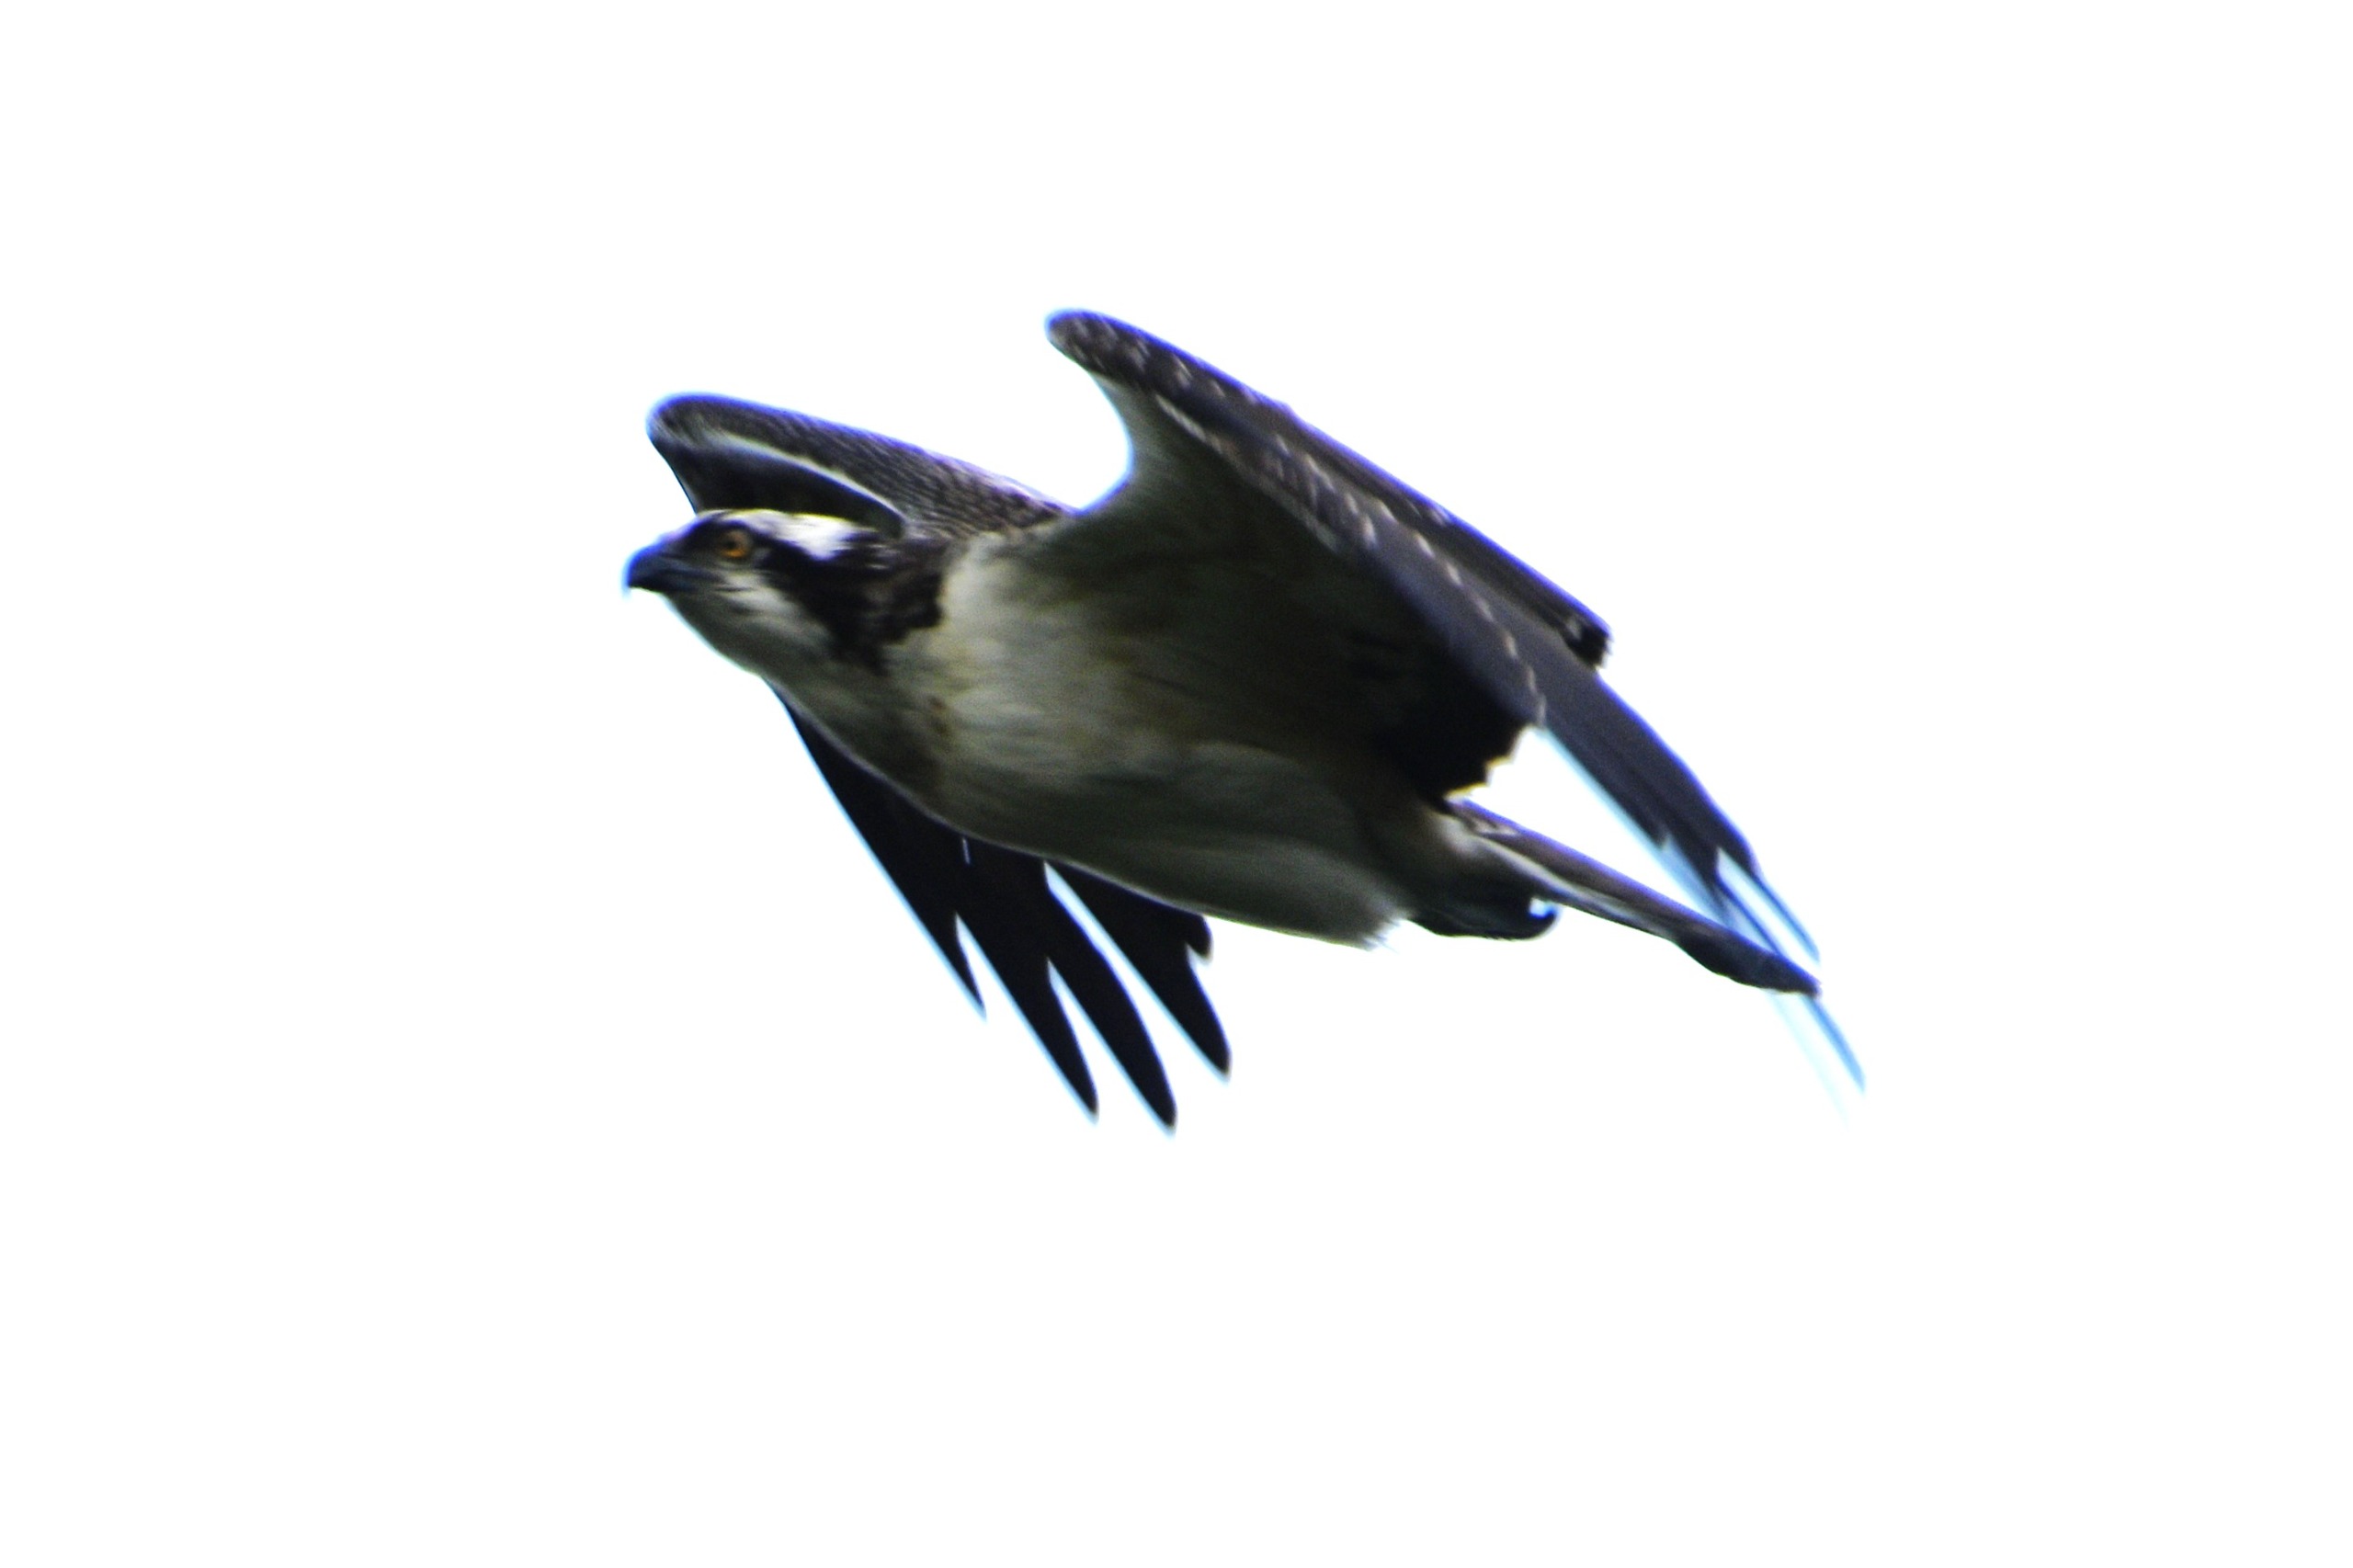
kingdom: Animalia
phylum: Chordata
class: Aves
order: Accipitriformes
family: Pandionidae
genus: Pandion
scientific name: Pandion haliaetus
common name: Fiskeørn
